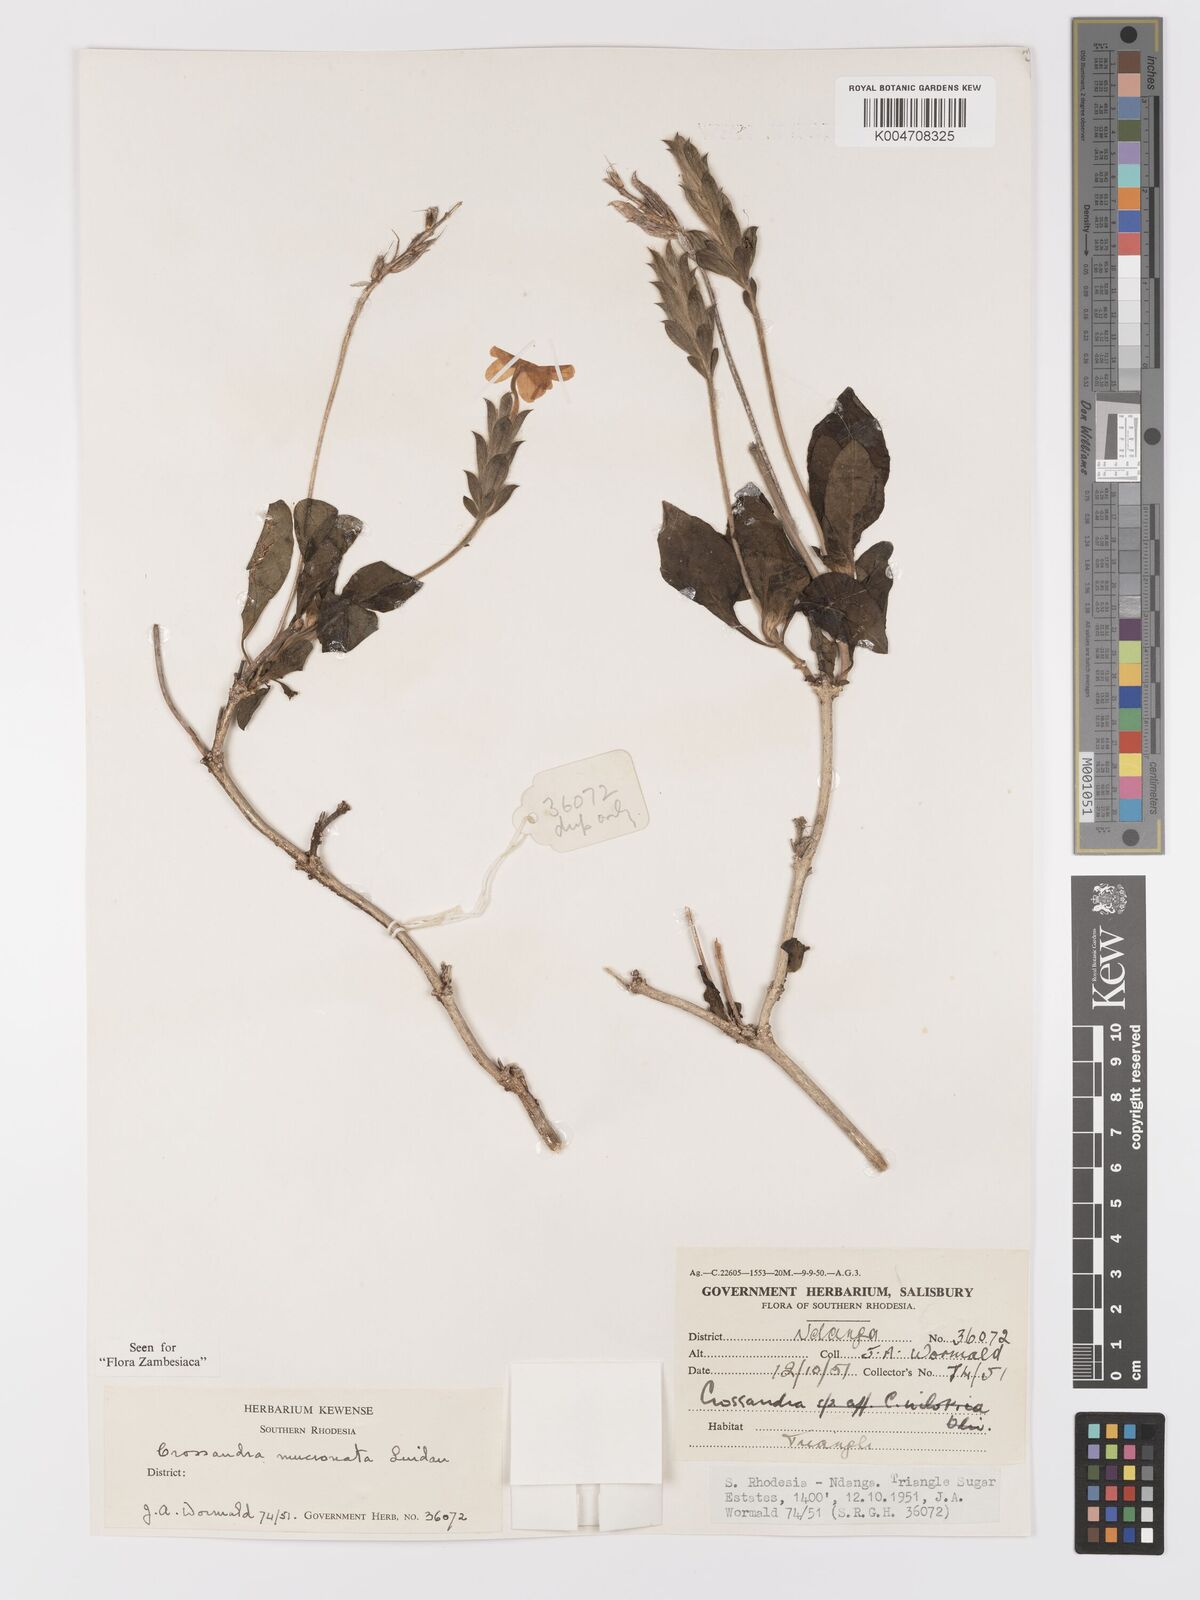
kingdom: Plantae
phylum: Tracheophyta
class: Magnoliopsida
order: Lamiales
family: Acanthaceae
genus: Crossandra
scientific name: Crossandra mucronata
